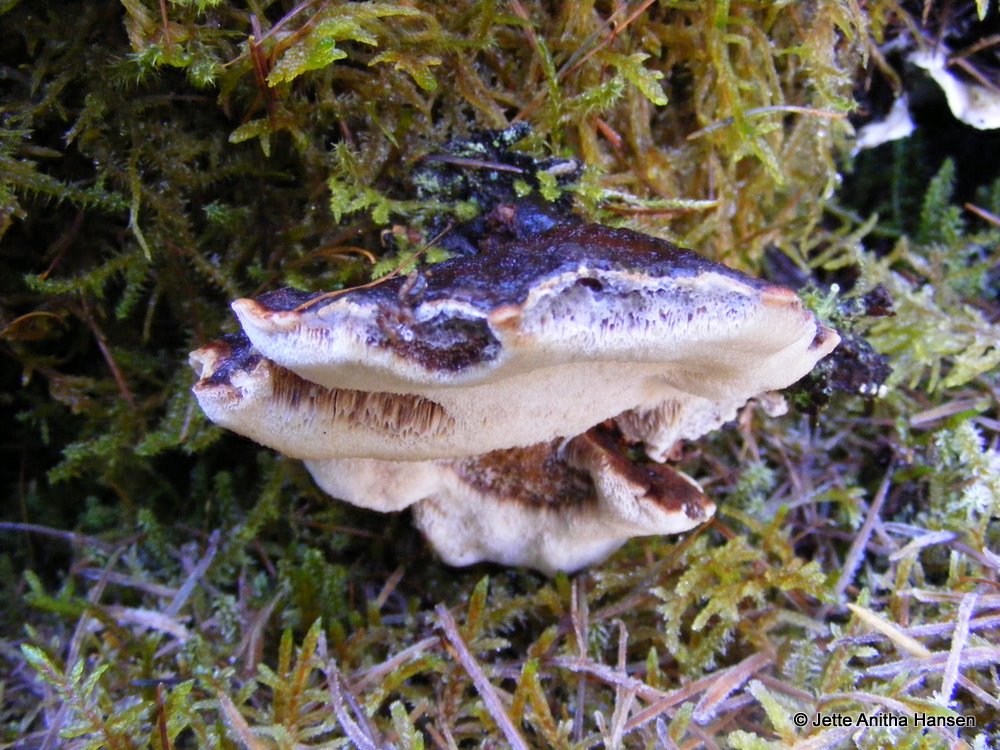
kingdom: Fungi
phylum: Basidiomycota
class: Agaricomycetes
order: Polyporales
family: Ischnodermataceae
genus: Ischnoderma
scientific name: Ischnoderma benzoinum
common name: gran-tjæreporesvamp
